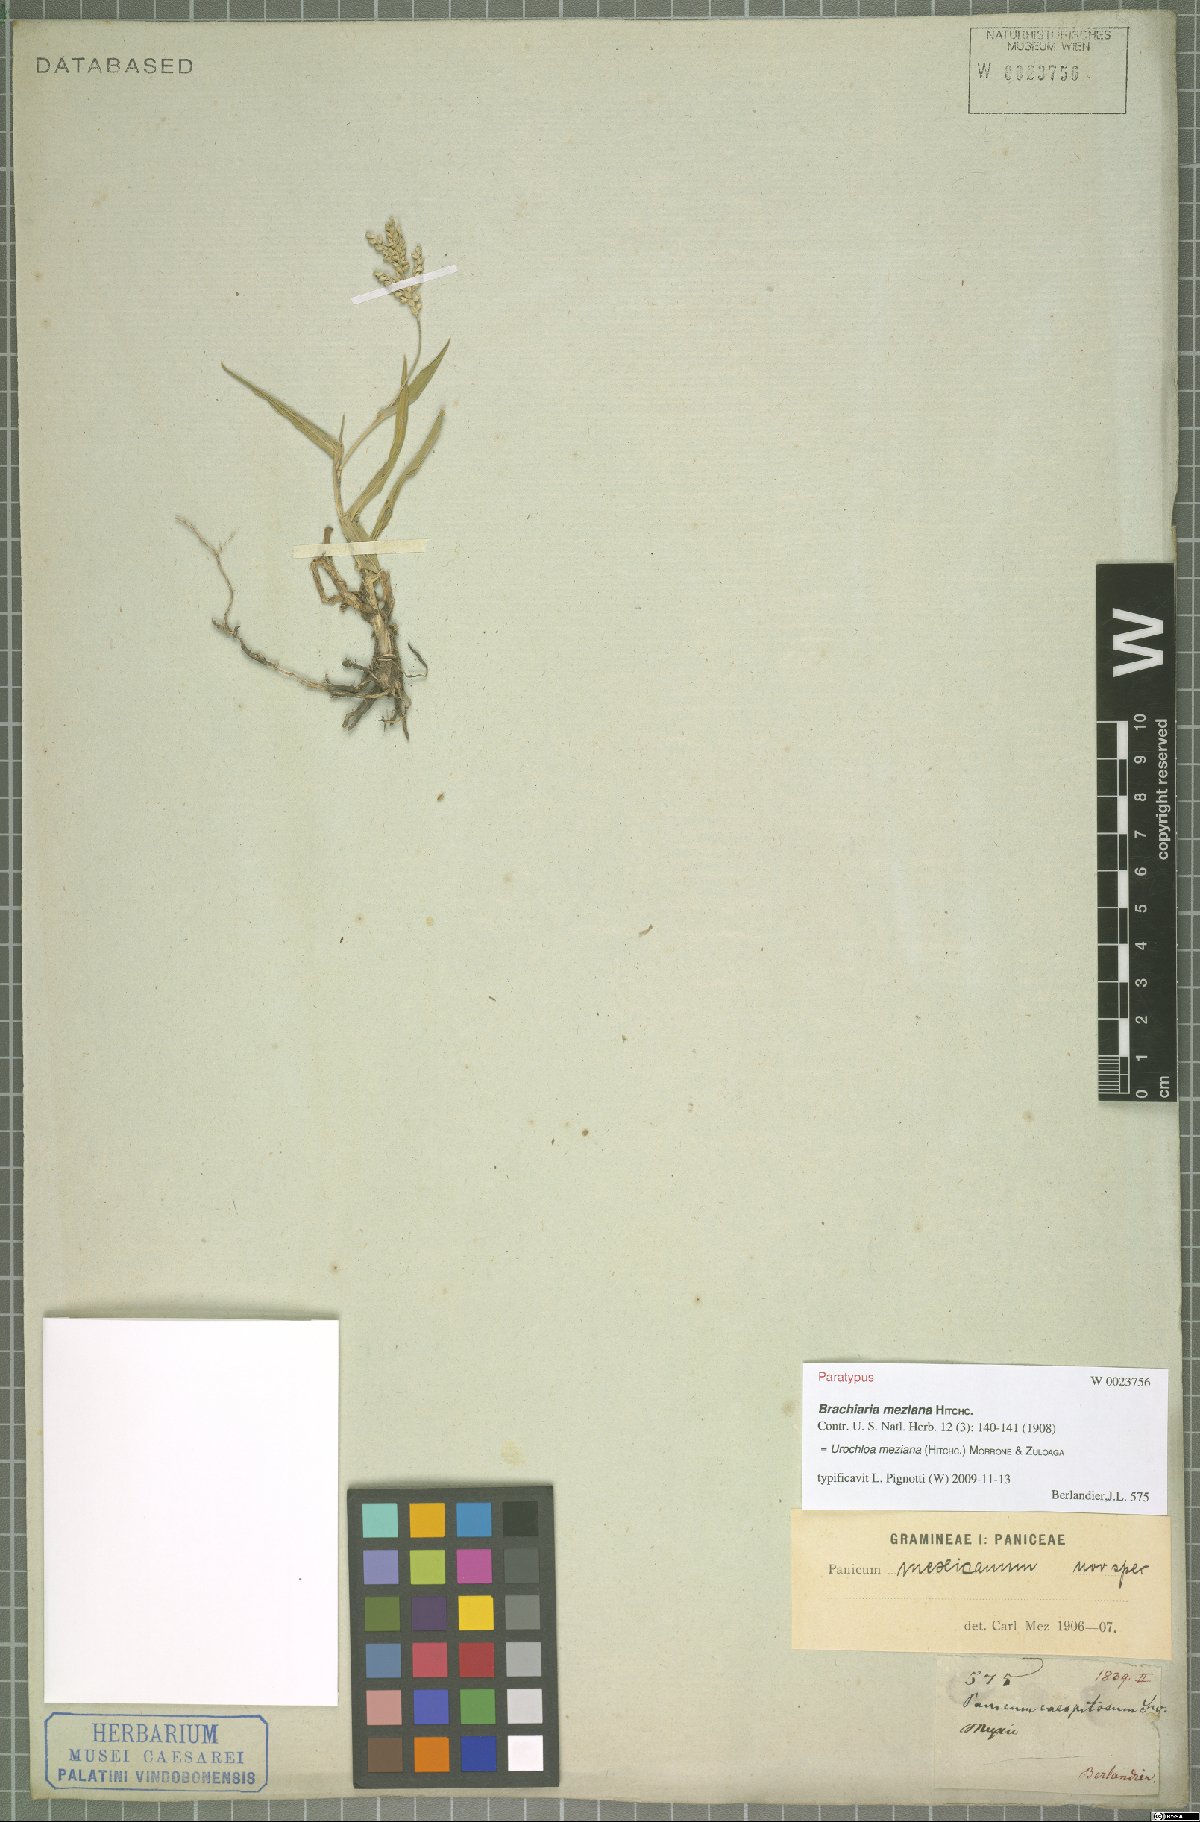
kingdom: Plantae
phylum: Tracheophyta
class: Liliopsida
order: Poales
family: Poaceae
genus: Urochloa
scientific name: Urochloa meziana
